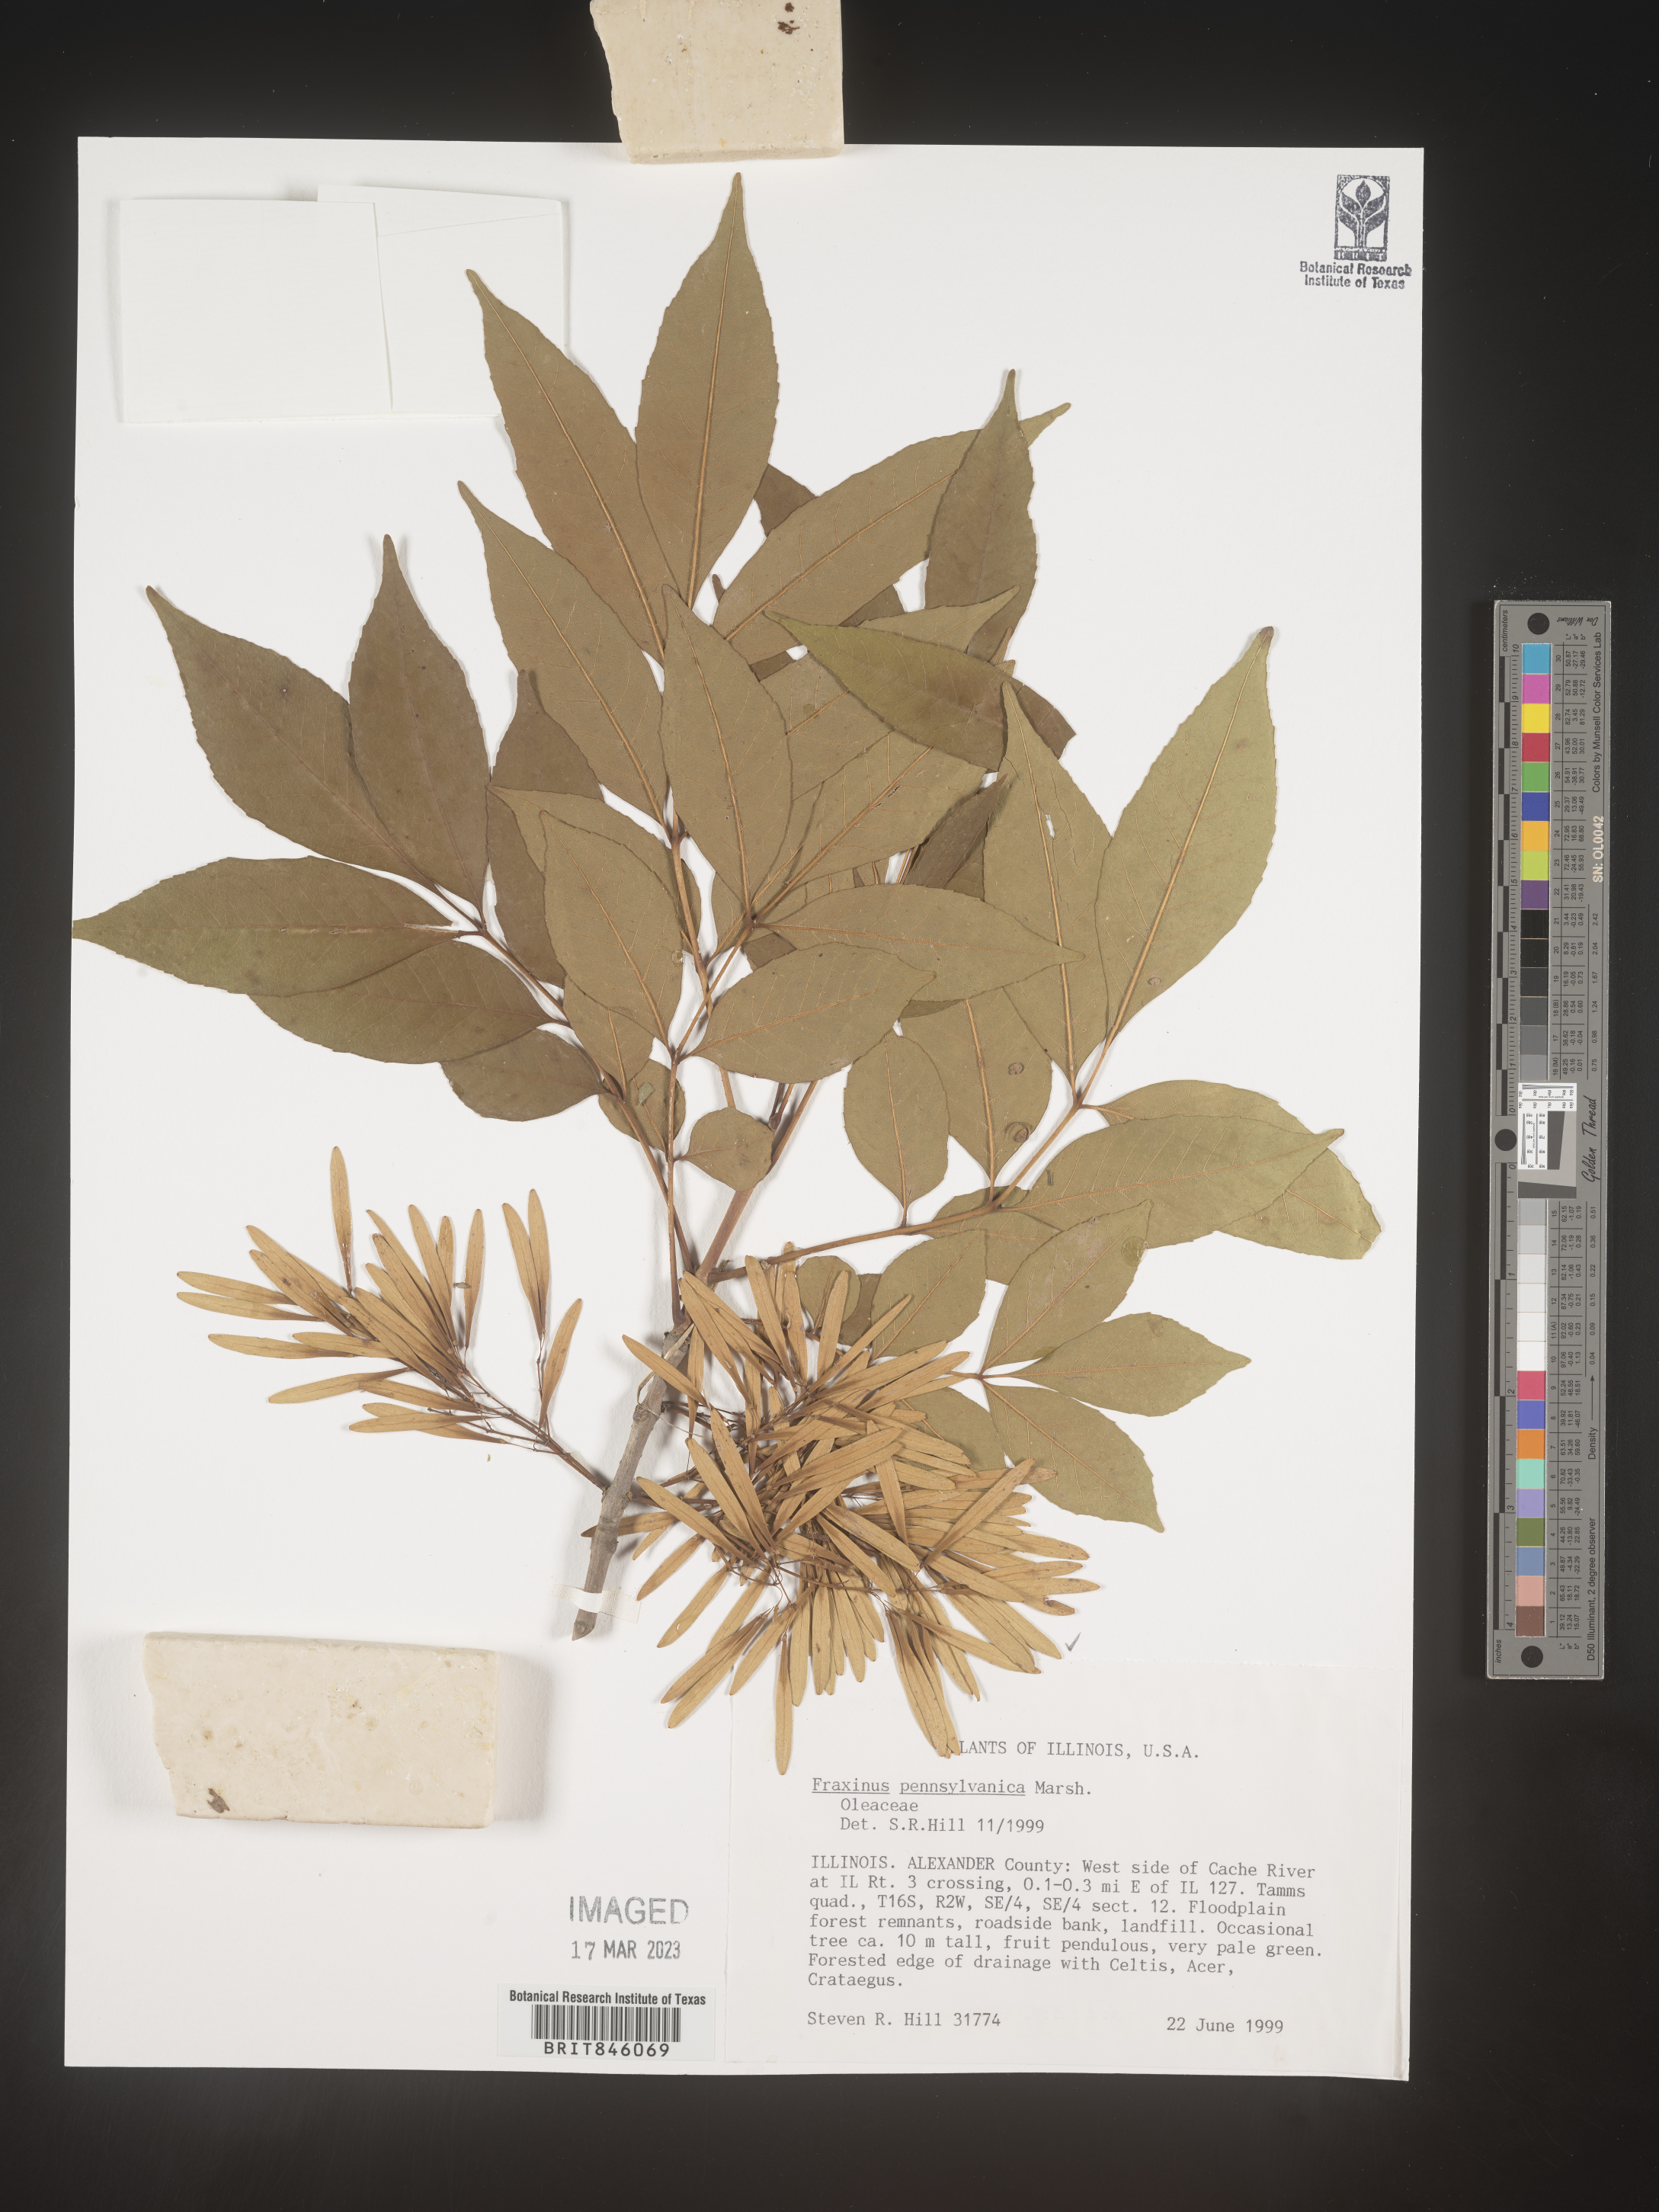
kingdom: Plantae
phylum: Tracheophyta
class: Magnoliopsida
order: Lamiales
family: Oleaceae
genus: Fraxinus
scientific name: Fraxinus pennsylvanica
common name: Green ash
